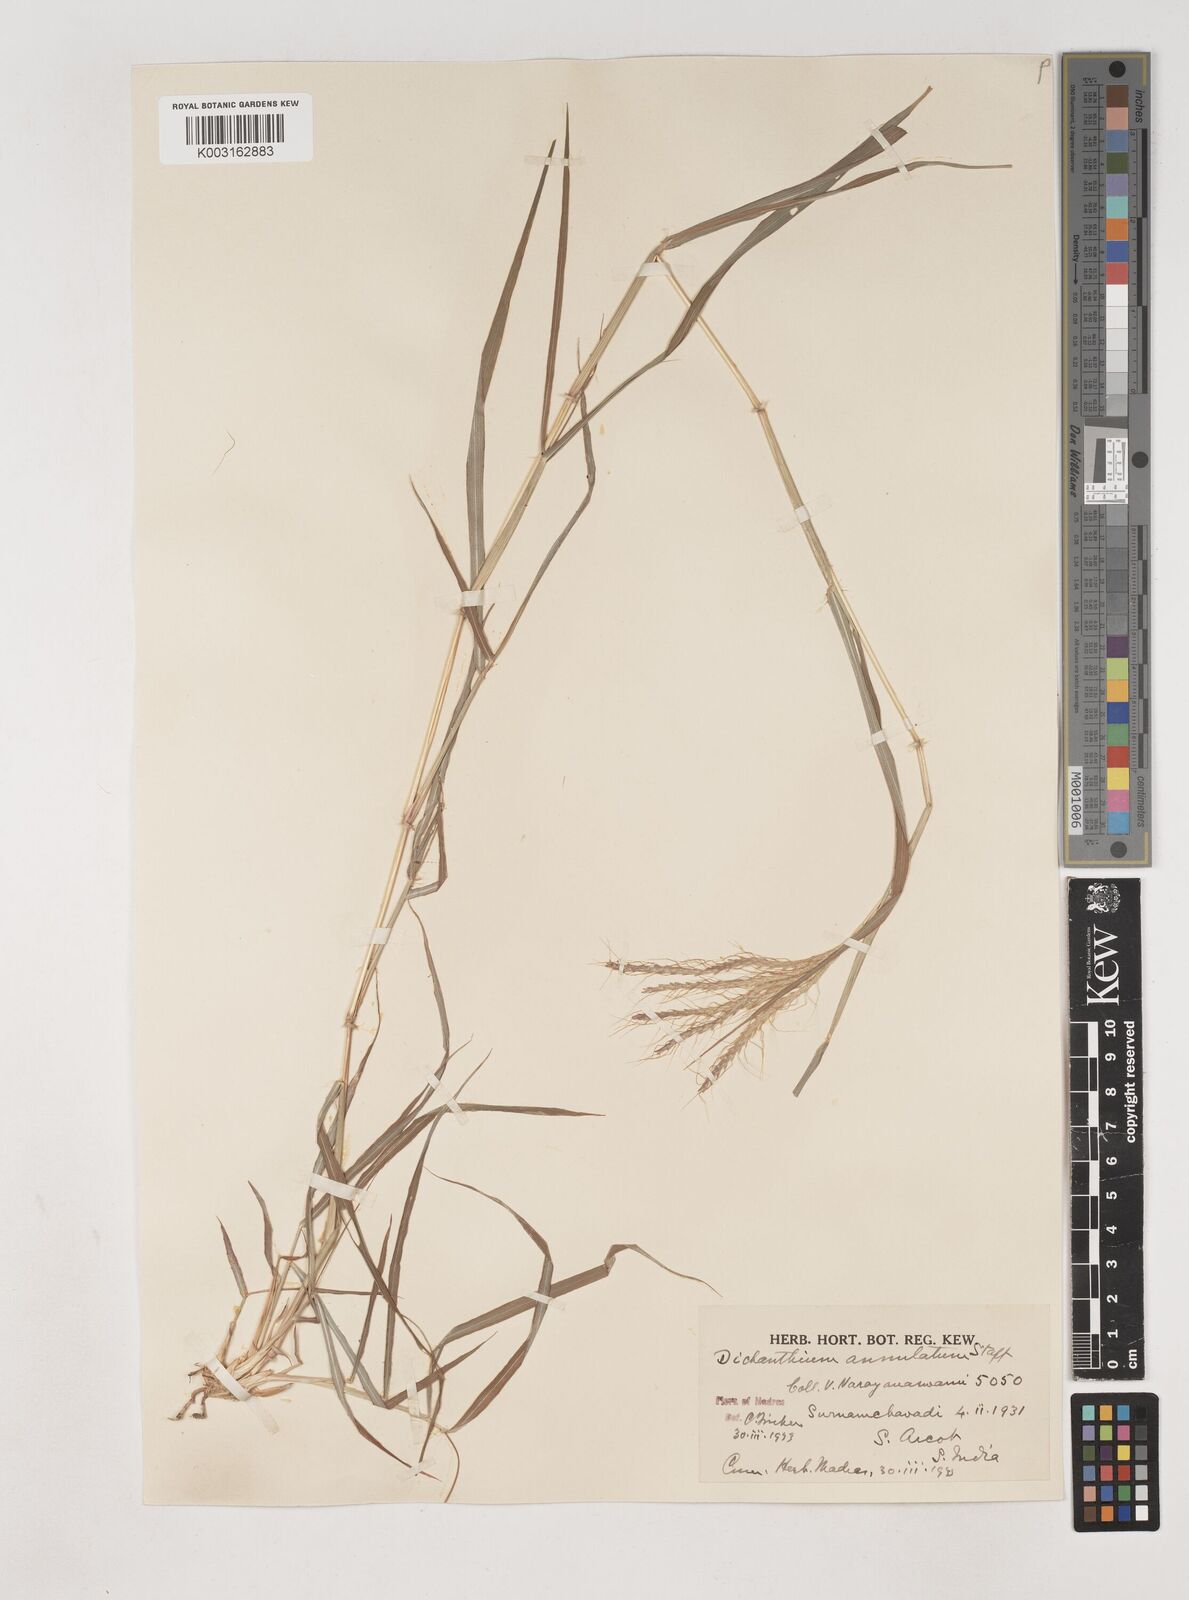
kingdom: Plantae
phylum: Tracheophyta
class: Liliopsida
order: Poales
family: Poaceae
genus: Dichanthium
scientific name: Dichanthium annulatum
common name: Kleberg's bluestem
